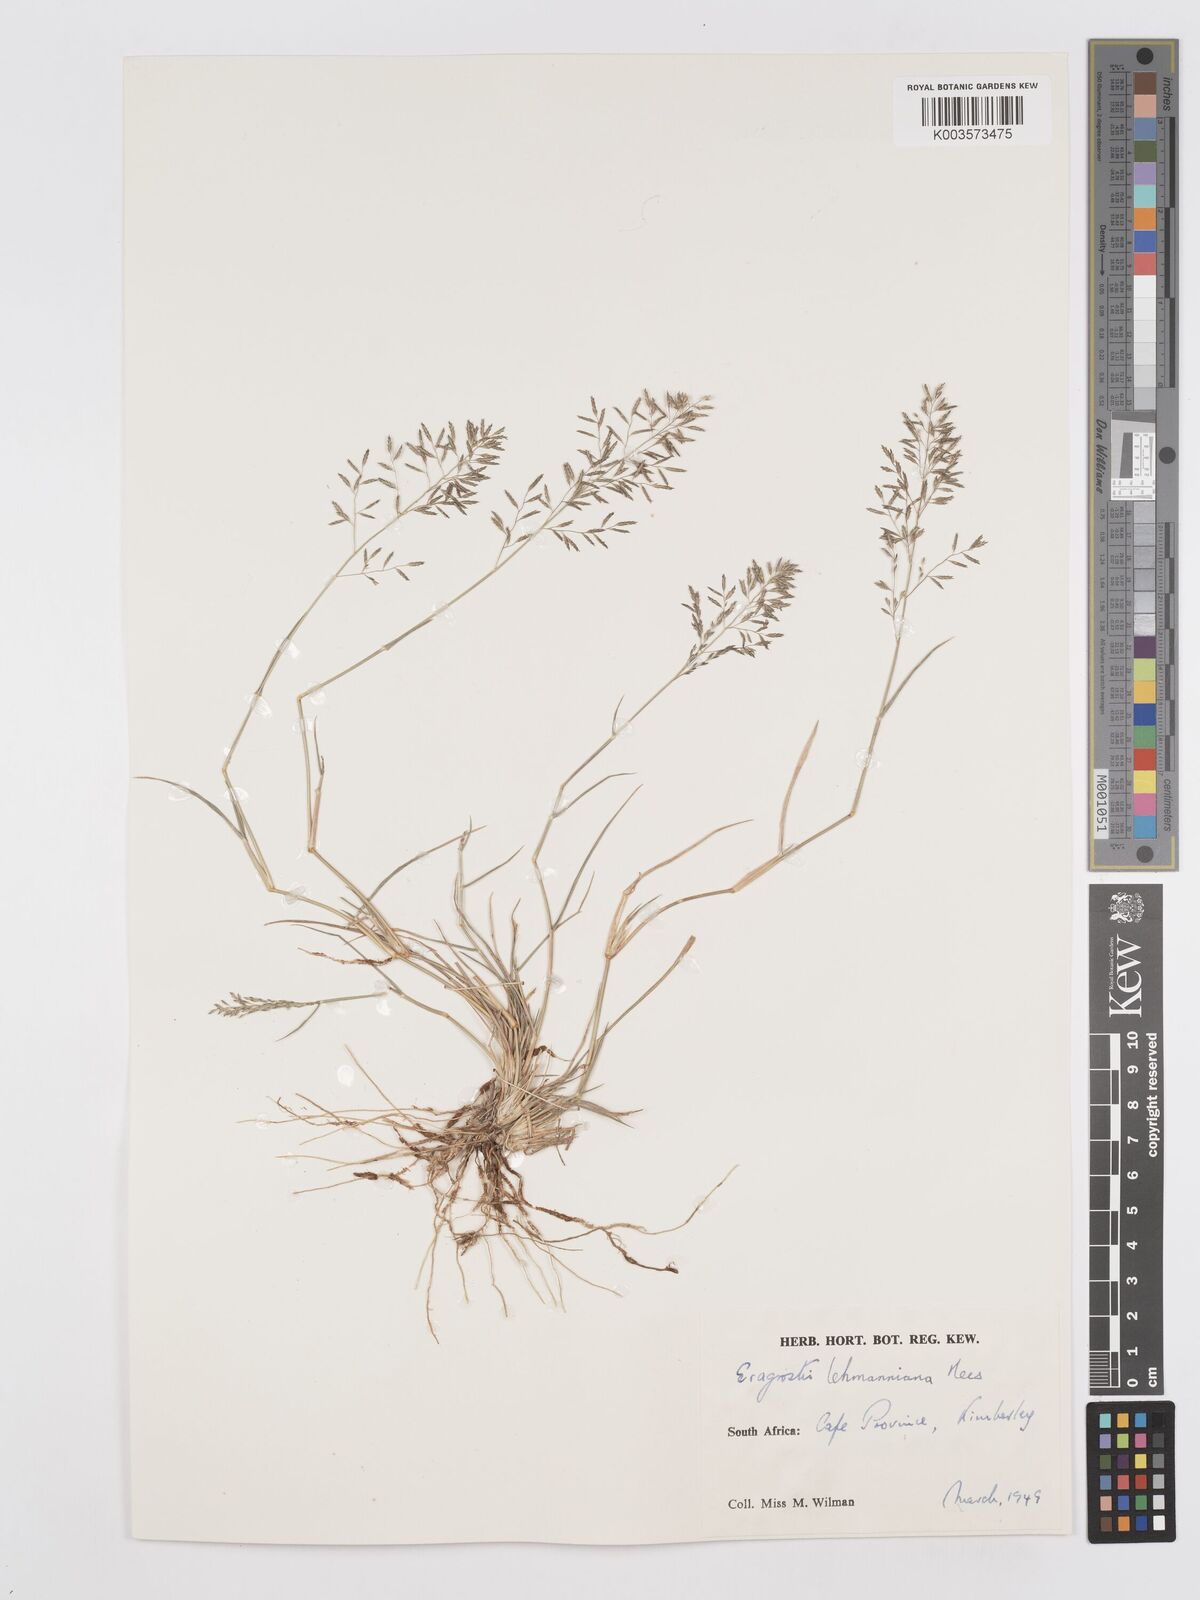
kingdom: Plantae
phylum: Tracheophyta
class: Liliopsida
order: Poales
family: Poaceae
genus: Eragrostis
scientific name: Eragrostis lehmanniana
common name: Lehmann lovegrass
